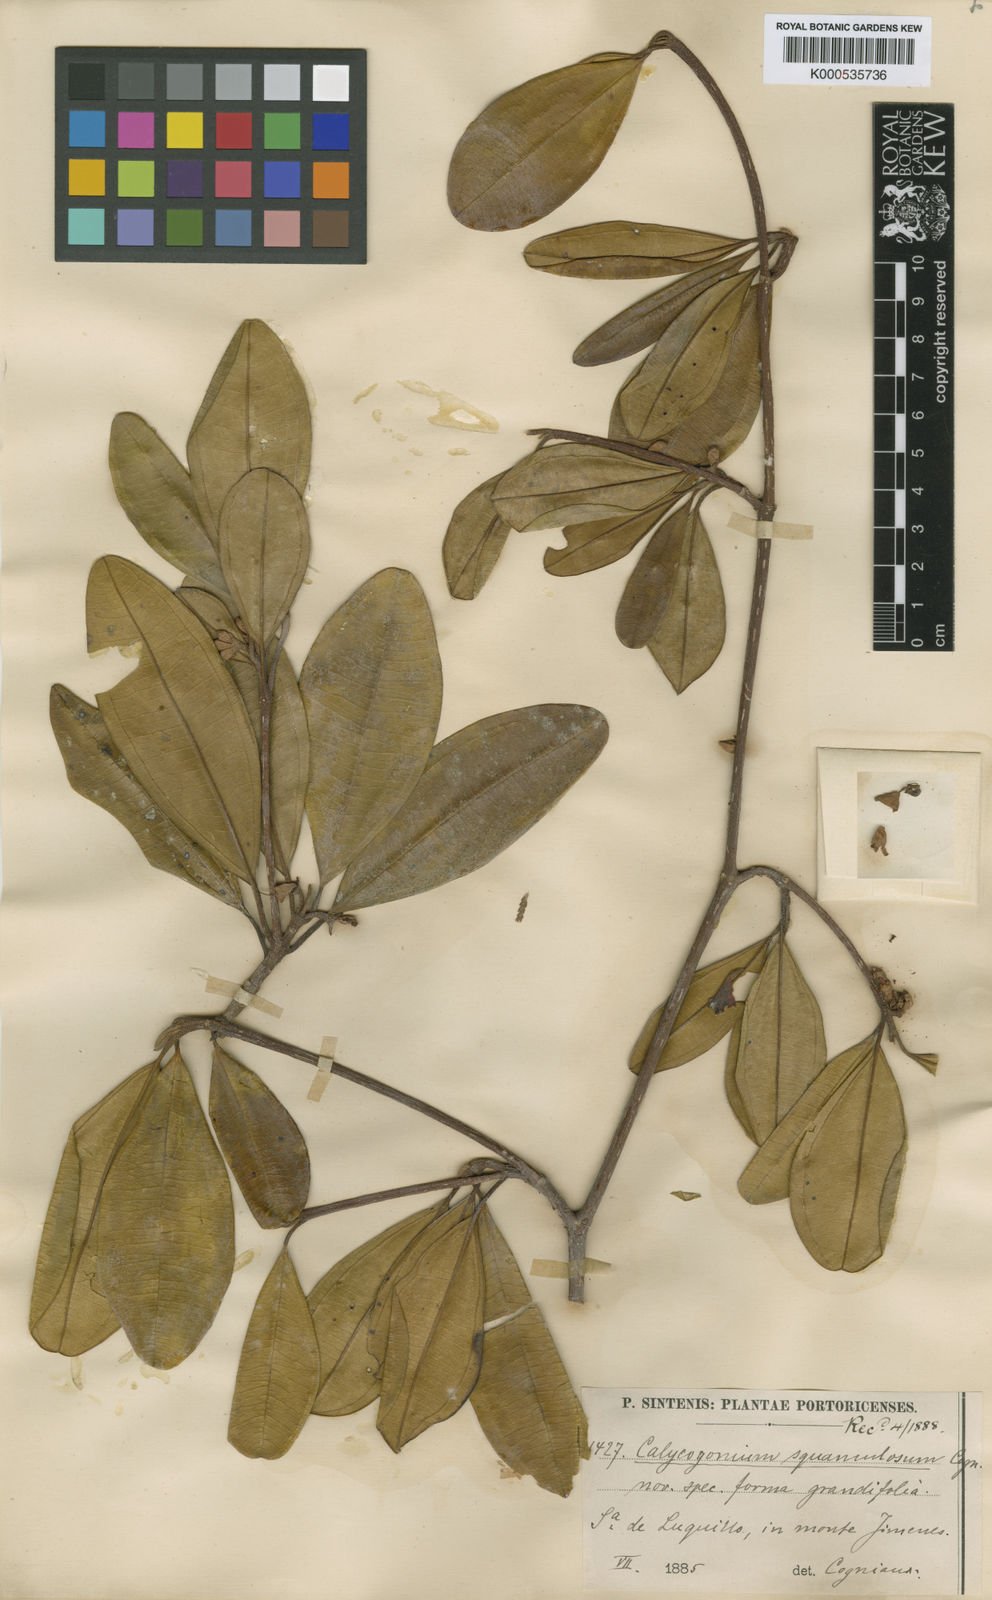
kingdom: Plantae
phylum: Tracheophyta
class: Magnoliopsida
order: Myrtales
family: Melastomataceae
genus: Henriettea
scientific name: Henriettea squamulosa
